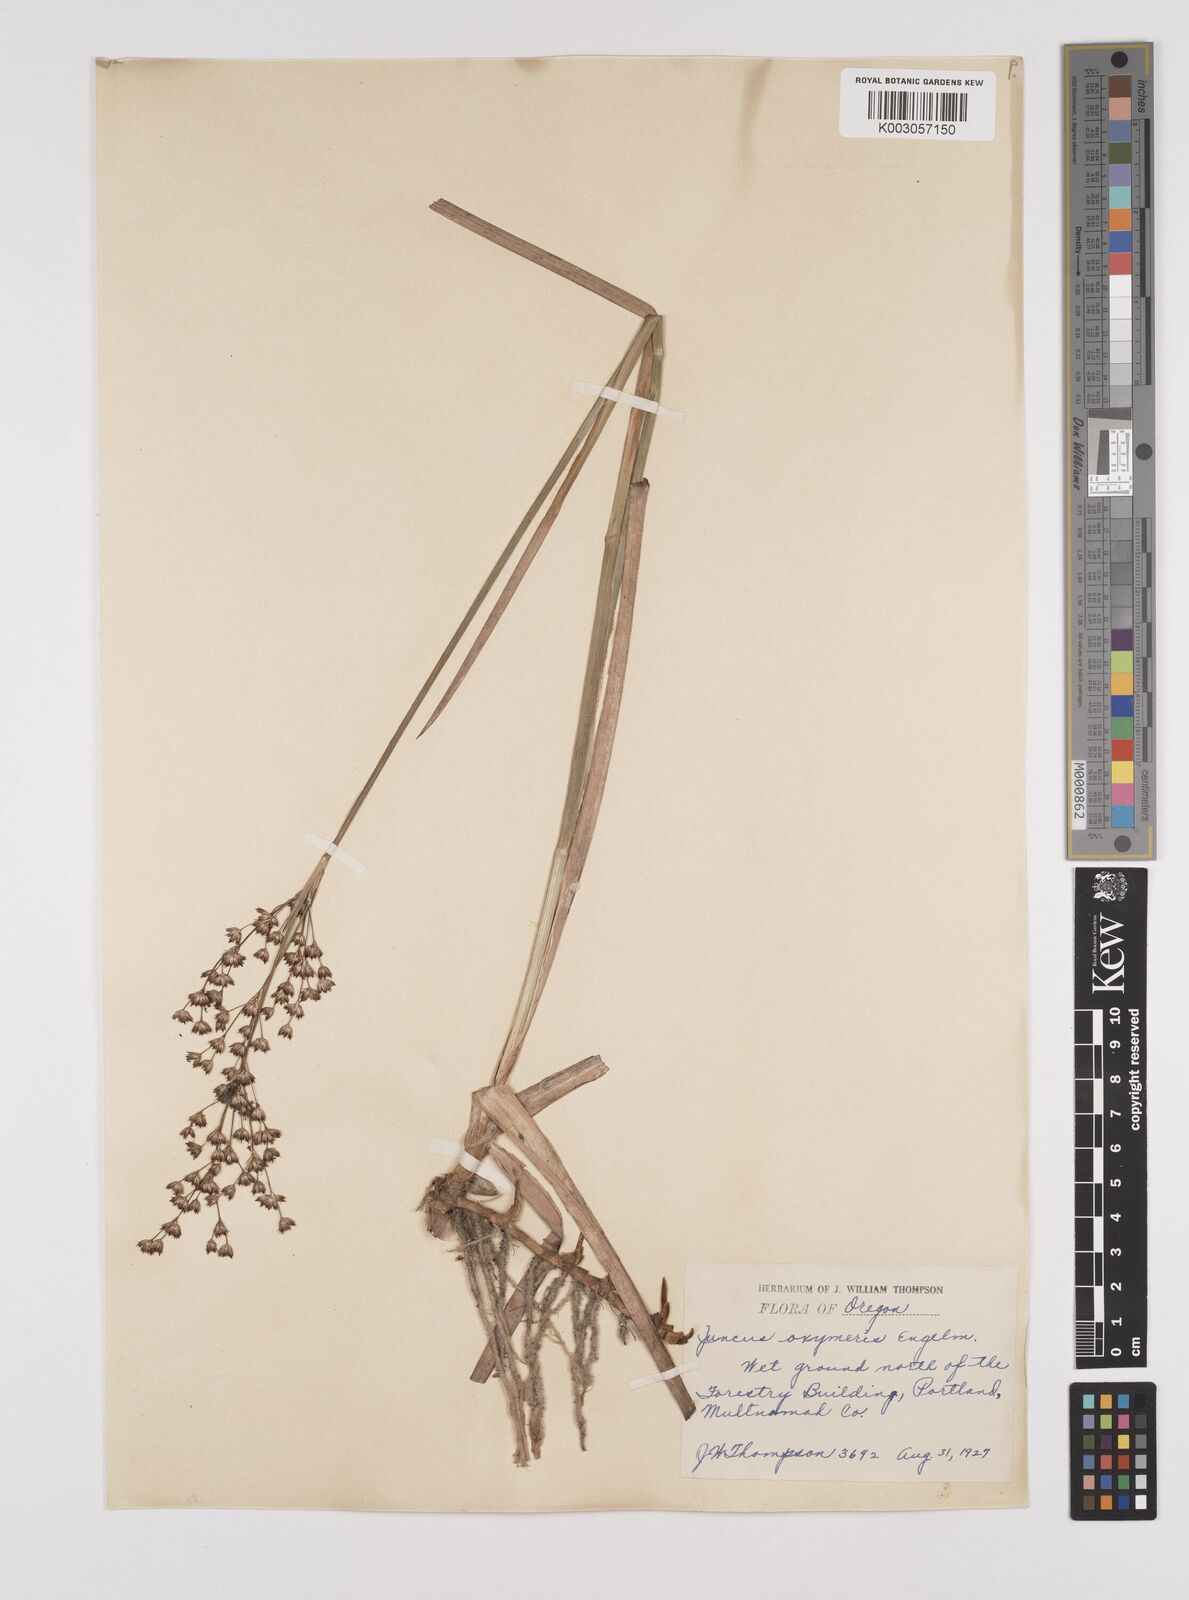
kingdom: Plantae
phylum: Tracheophyta
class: Liliopsida
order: Poales
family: Juncaceae
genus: Juncus
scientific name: Juncus oxymeris
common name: Pointed rush
